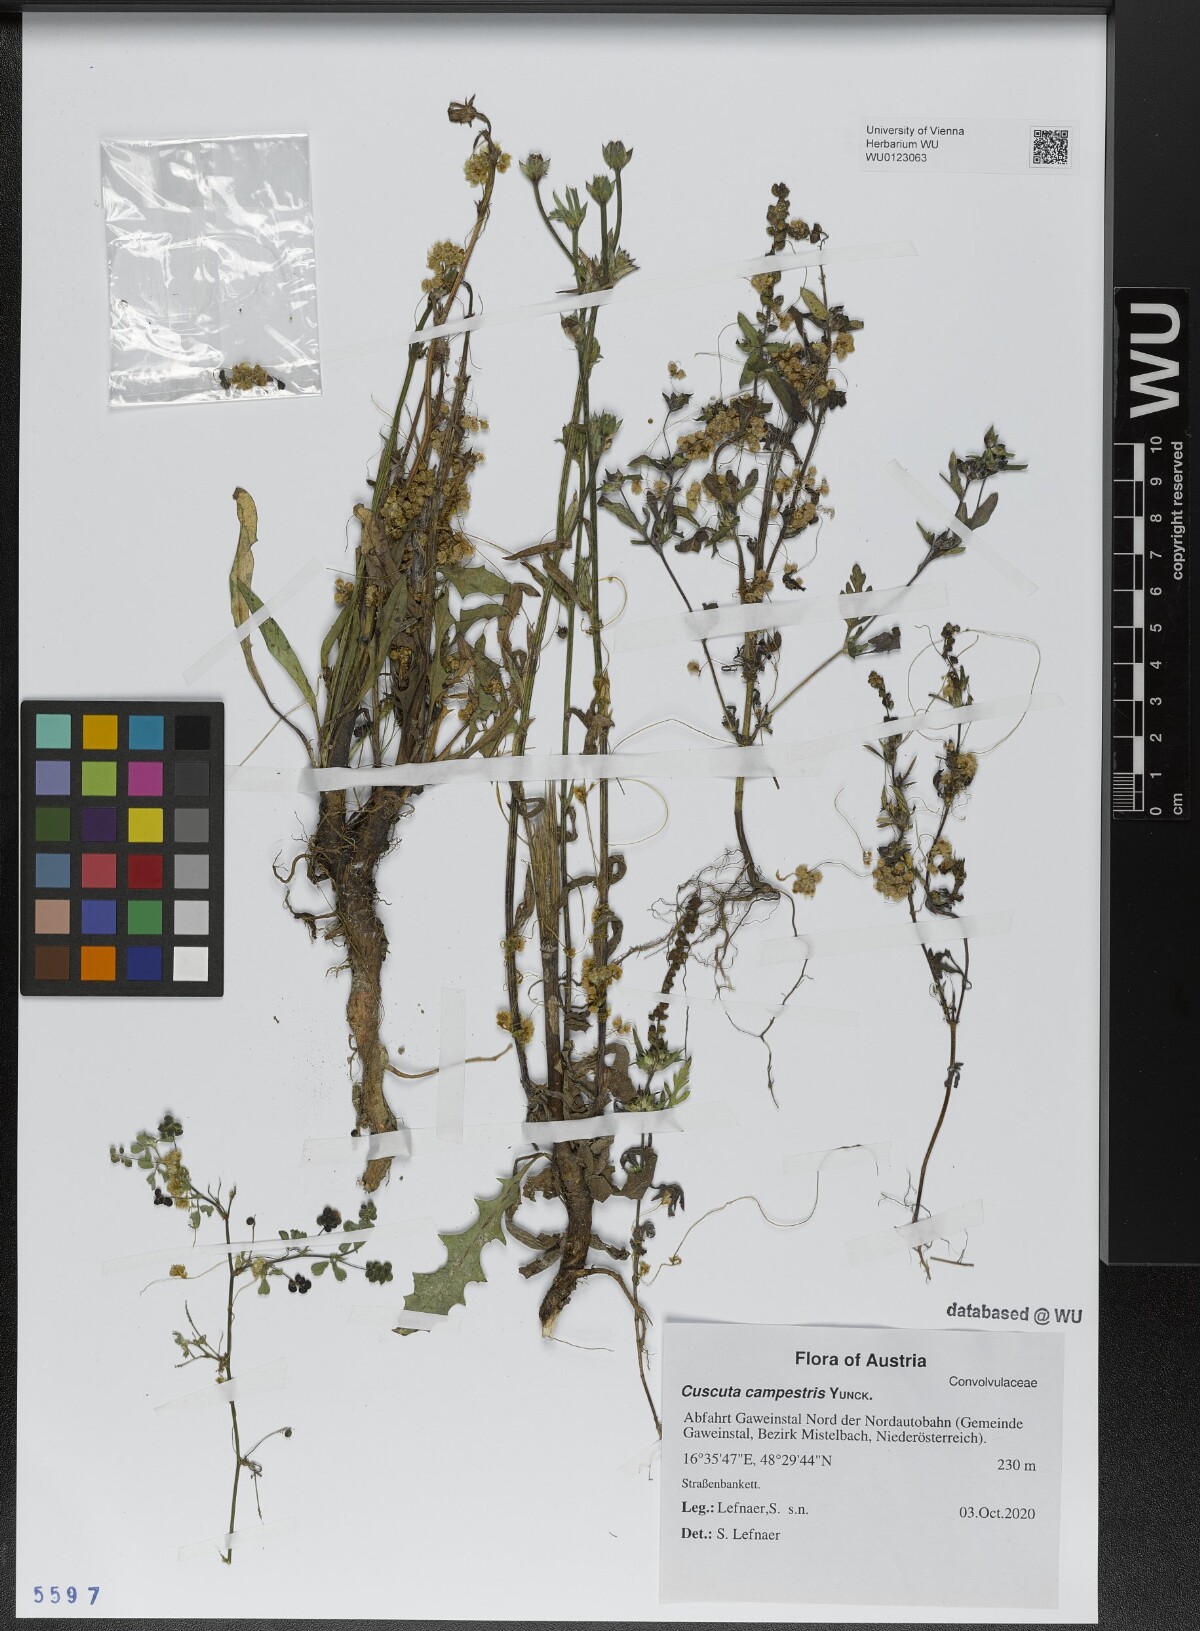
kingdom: Plantae
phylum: Tracheophyta
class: Magnoliopsida
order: Solanales
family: Convolvulaceae
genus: Cuscuta
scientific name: Cuscuta campestris
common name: Yellow dodder
